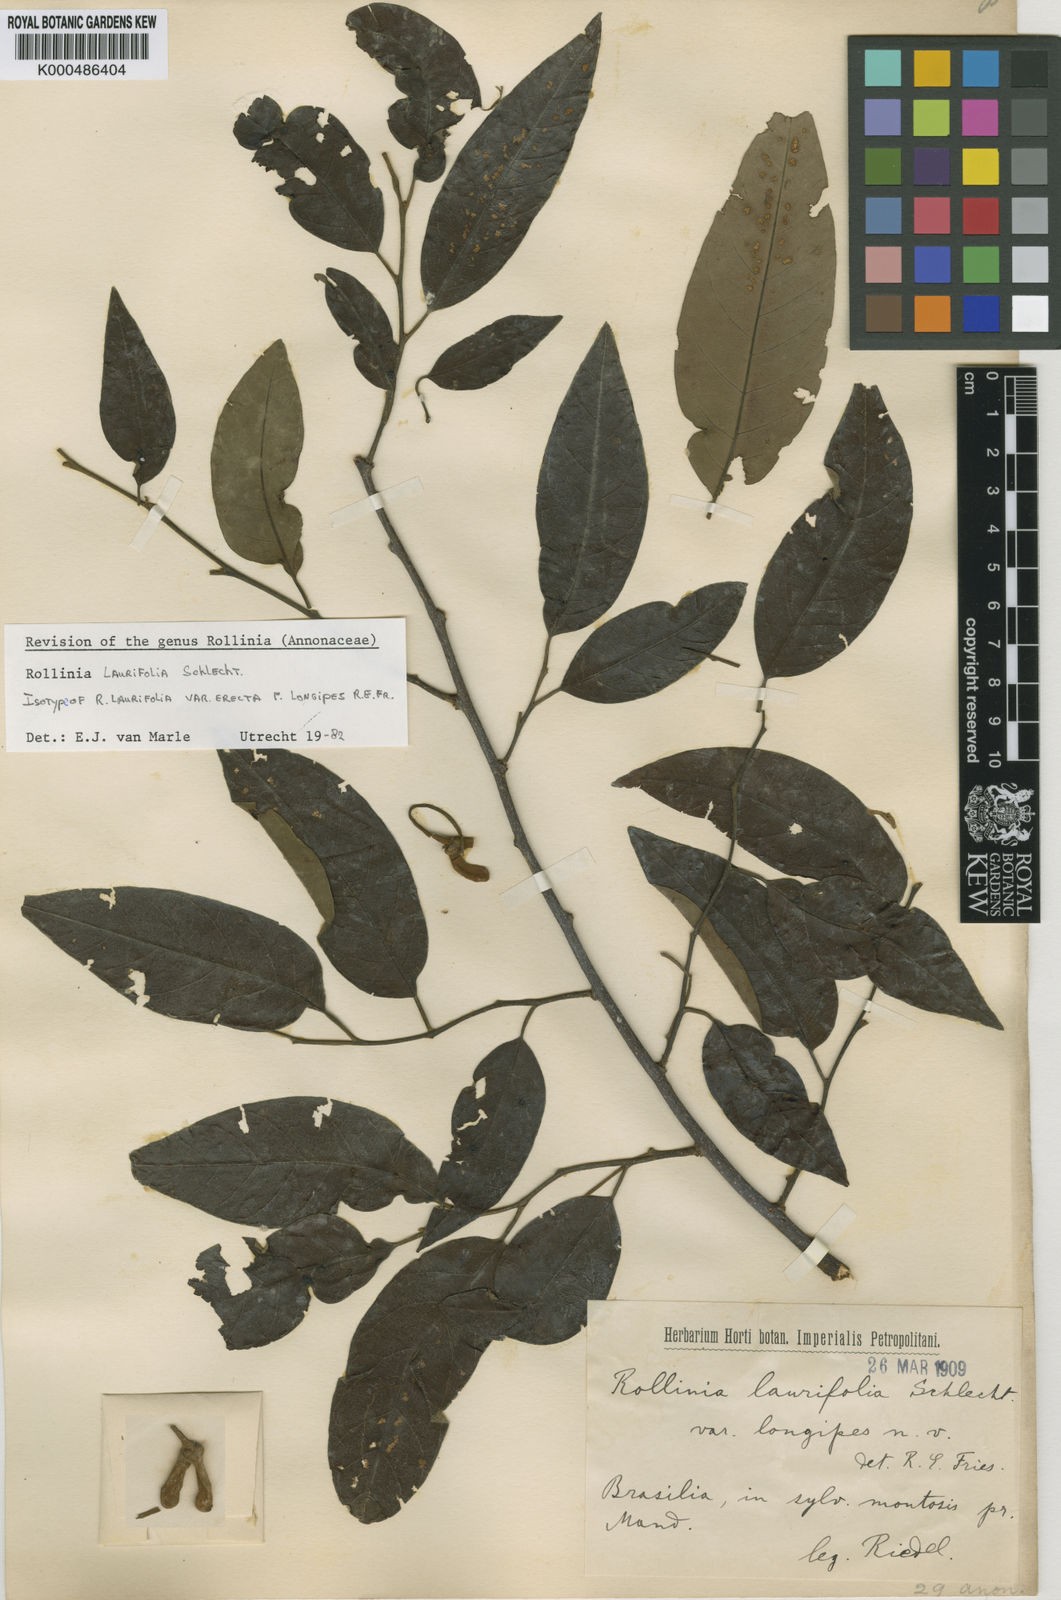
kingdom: Plantae
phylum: Tracheophyta
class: Magnoliopsida
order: Magnoliales
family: Annonaceae
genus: Annona
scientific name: Annona neolaurifolia
